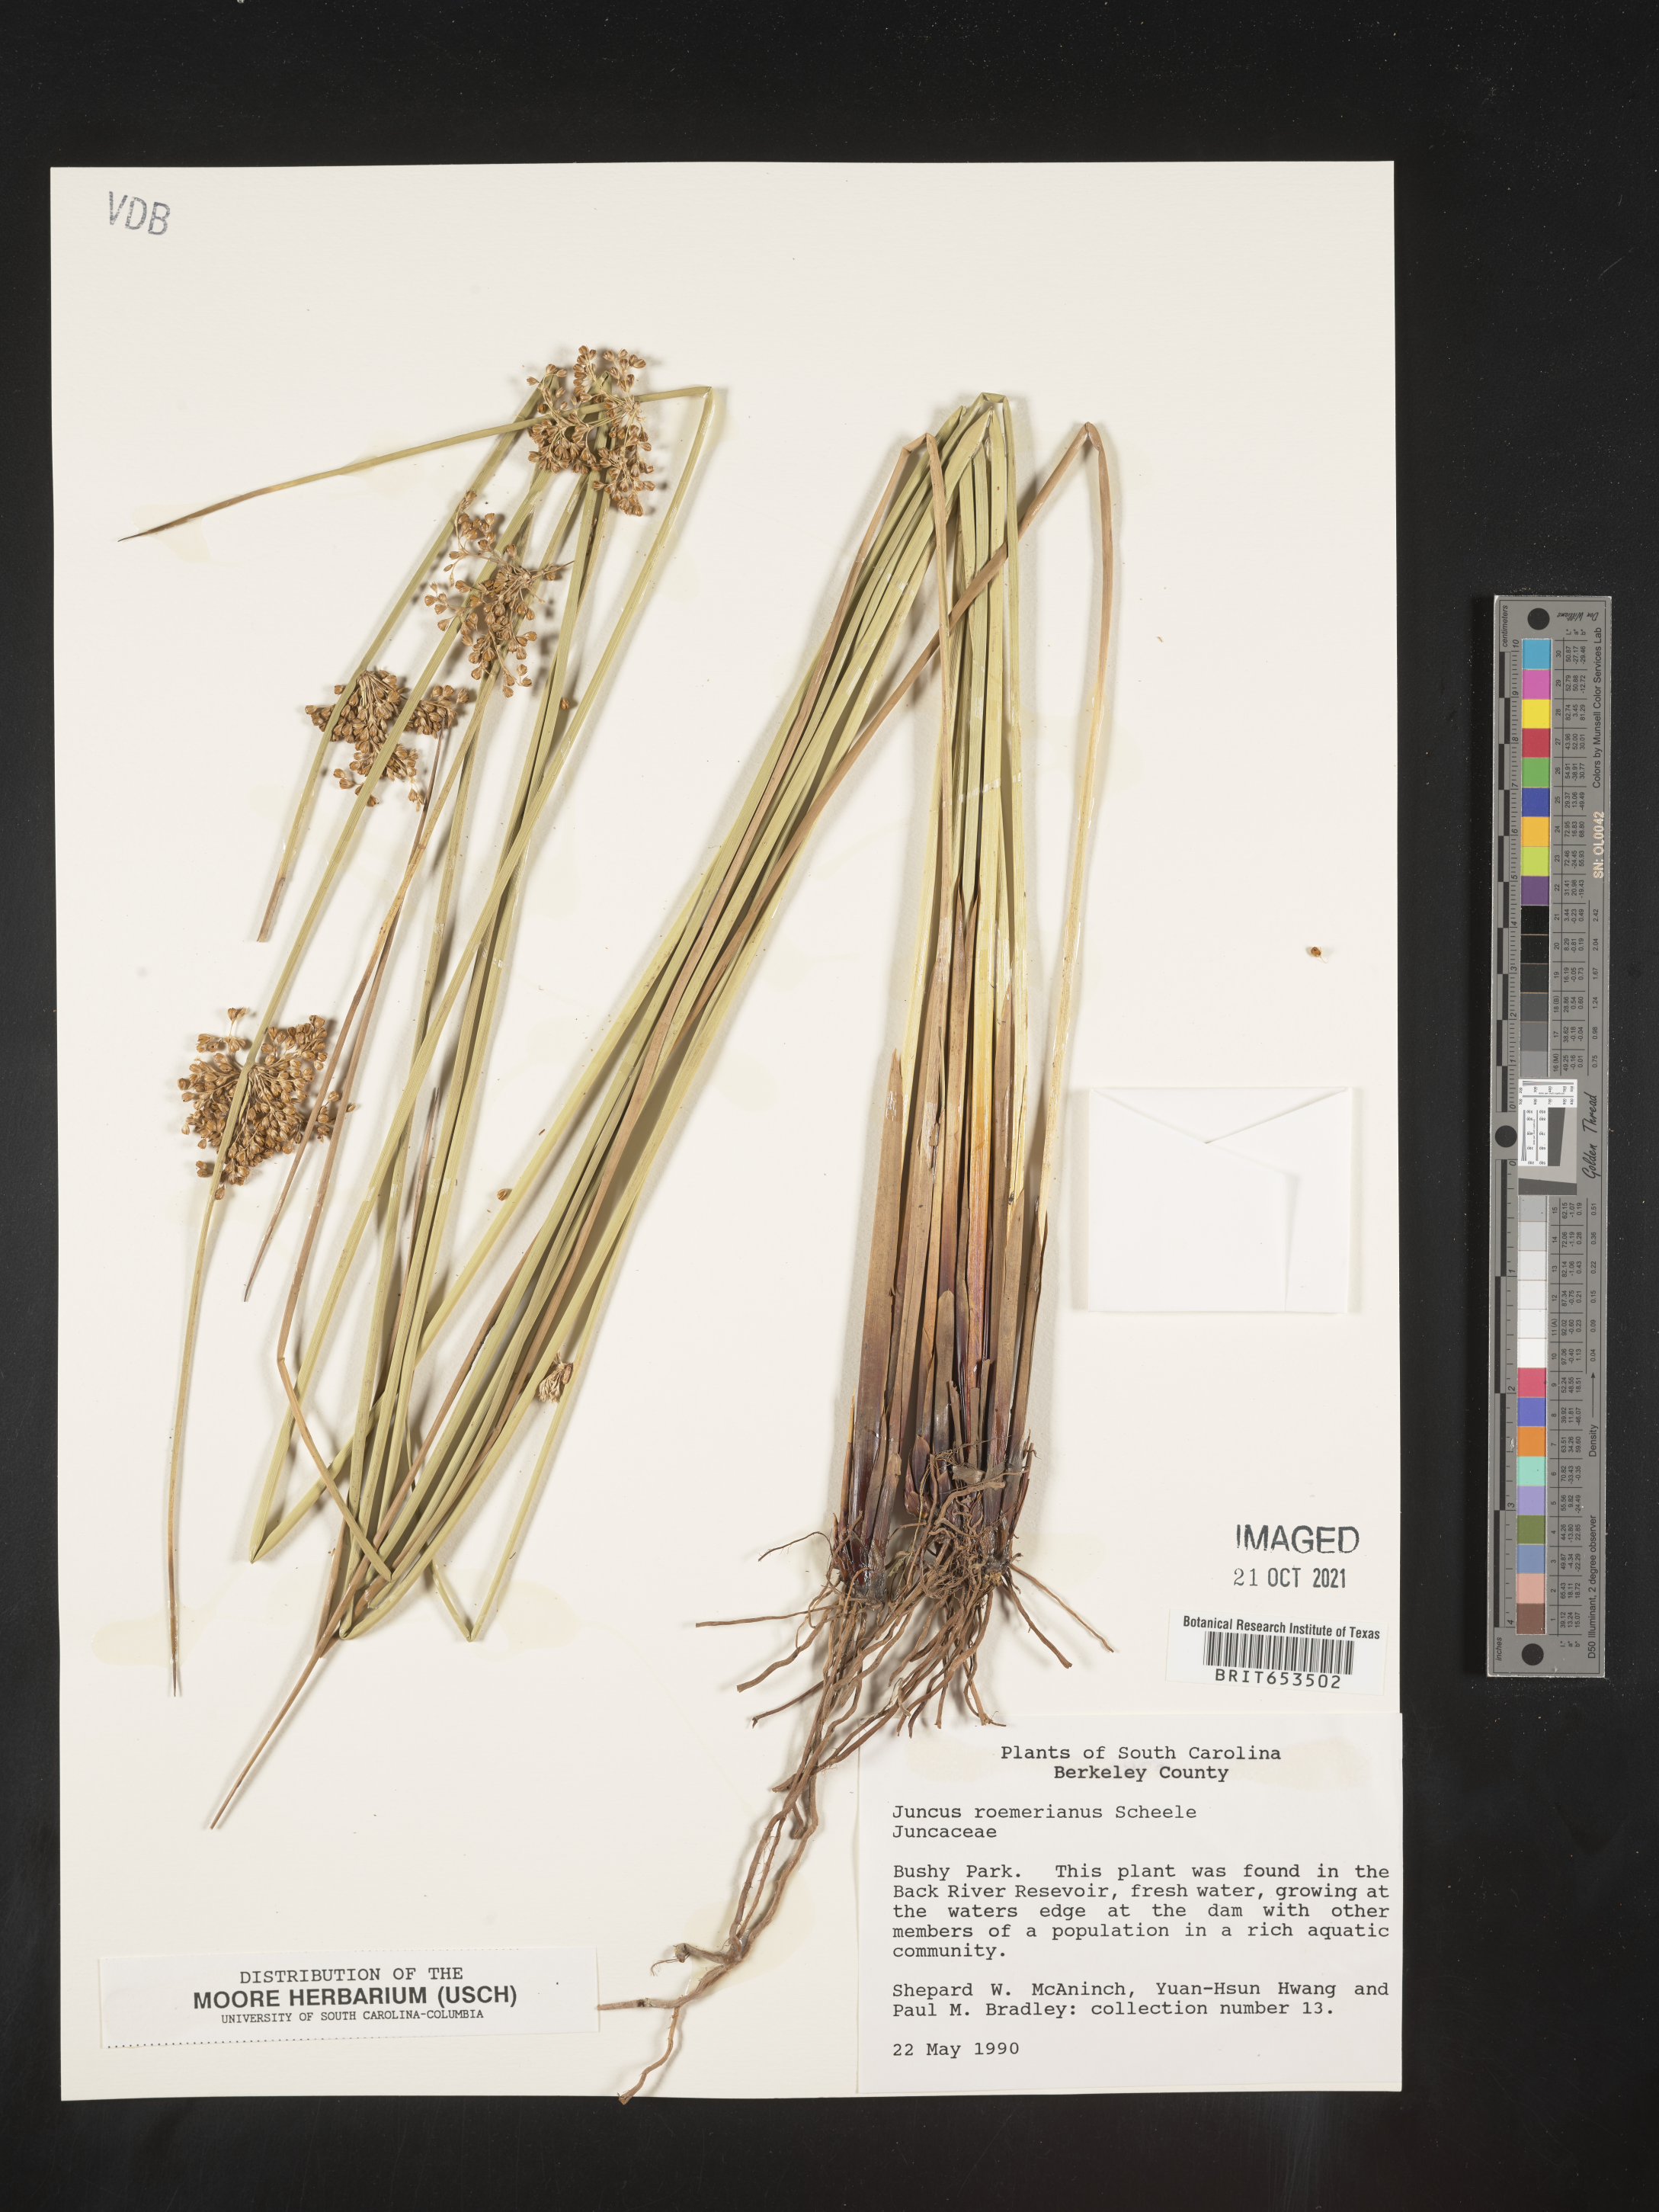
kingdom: Plantae
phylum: Tracheophyta
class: Liliopsida
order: Poales
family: Juncaceae
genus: Juncus
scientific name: Juncus roemerianus
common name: Roemer's rush
